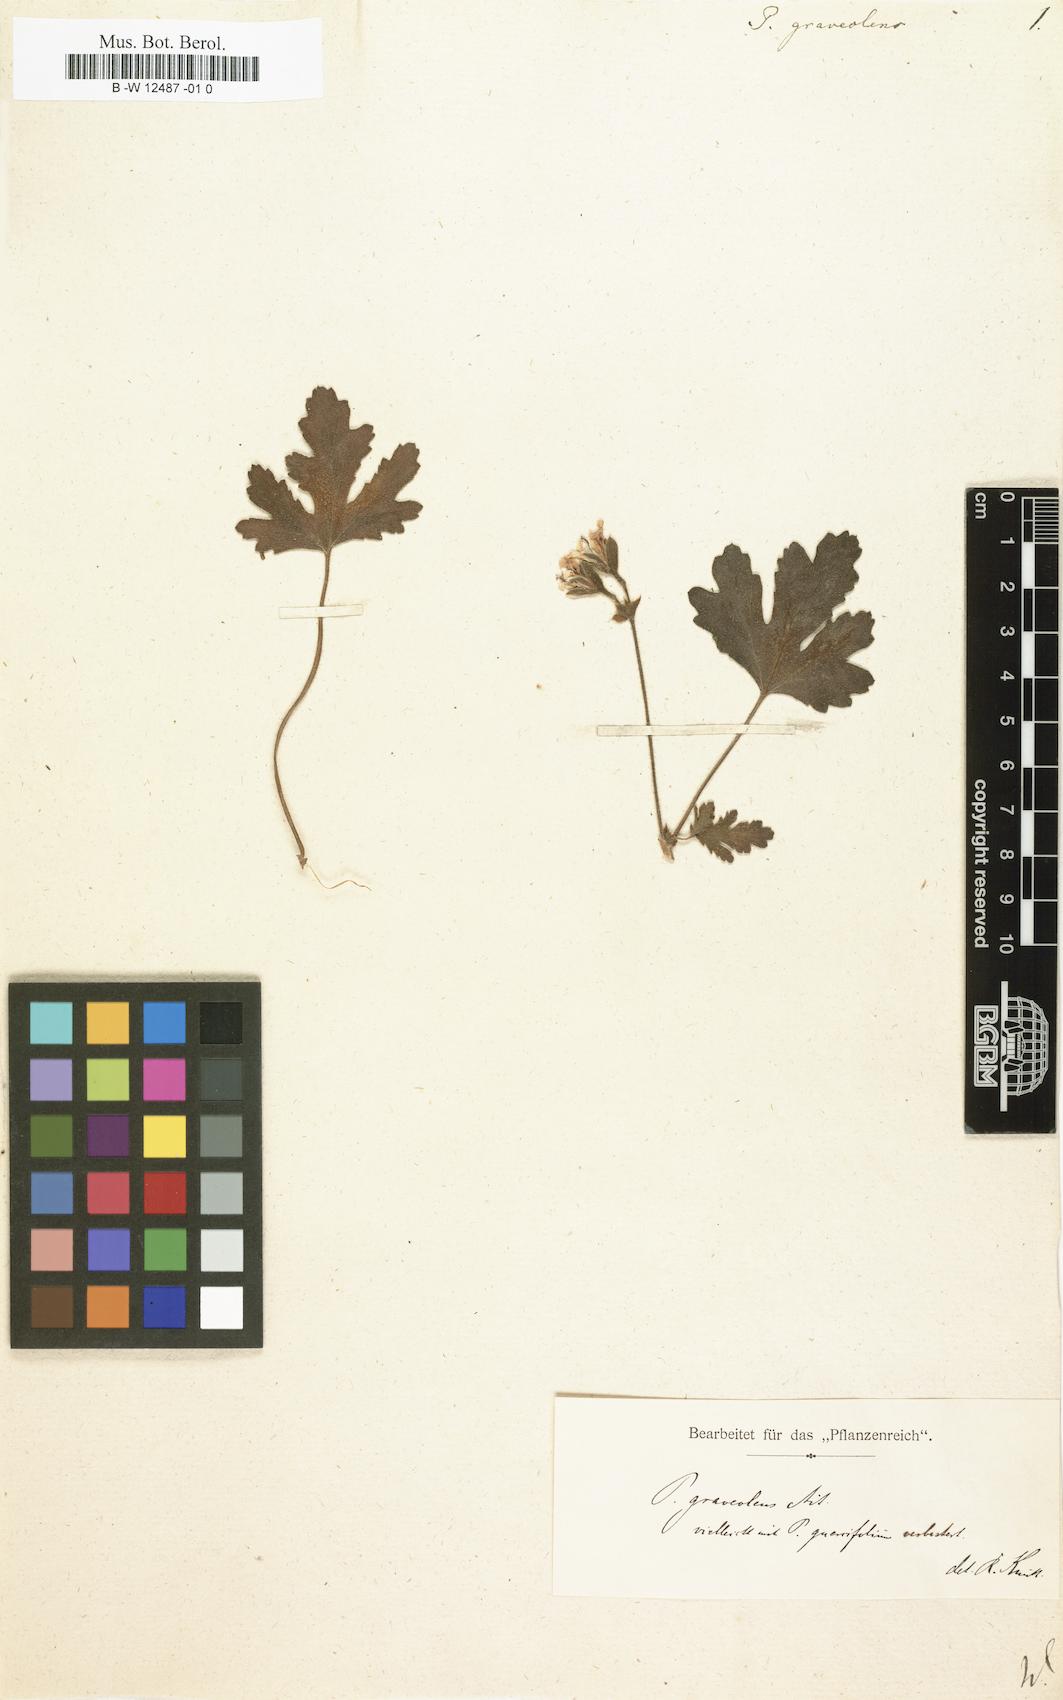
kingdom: Plantae
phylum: Tracheophyta
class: Magnoliopsida
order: Geraniales
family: Geraniaceae
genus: Pelargonium
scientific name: Pelargonium graveolens
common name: Rose-scent geranium
